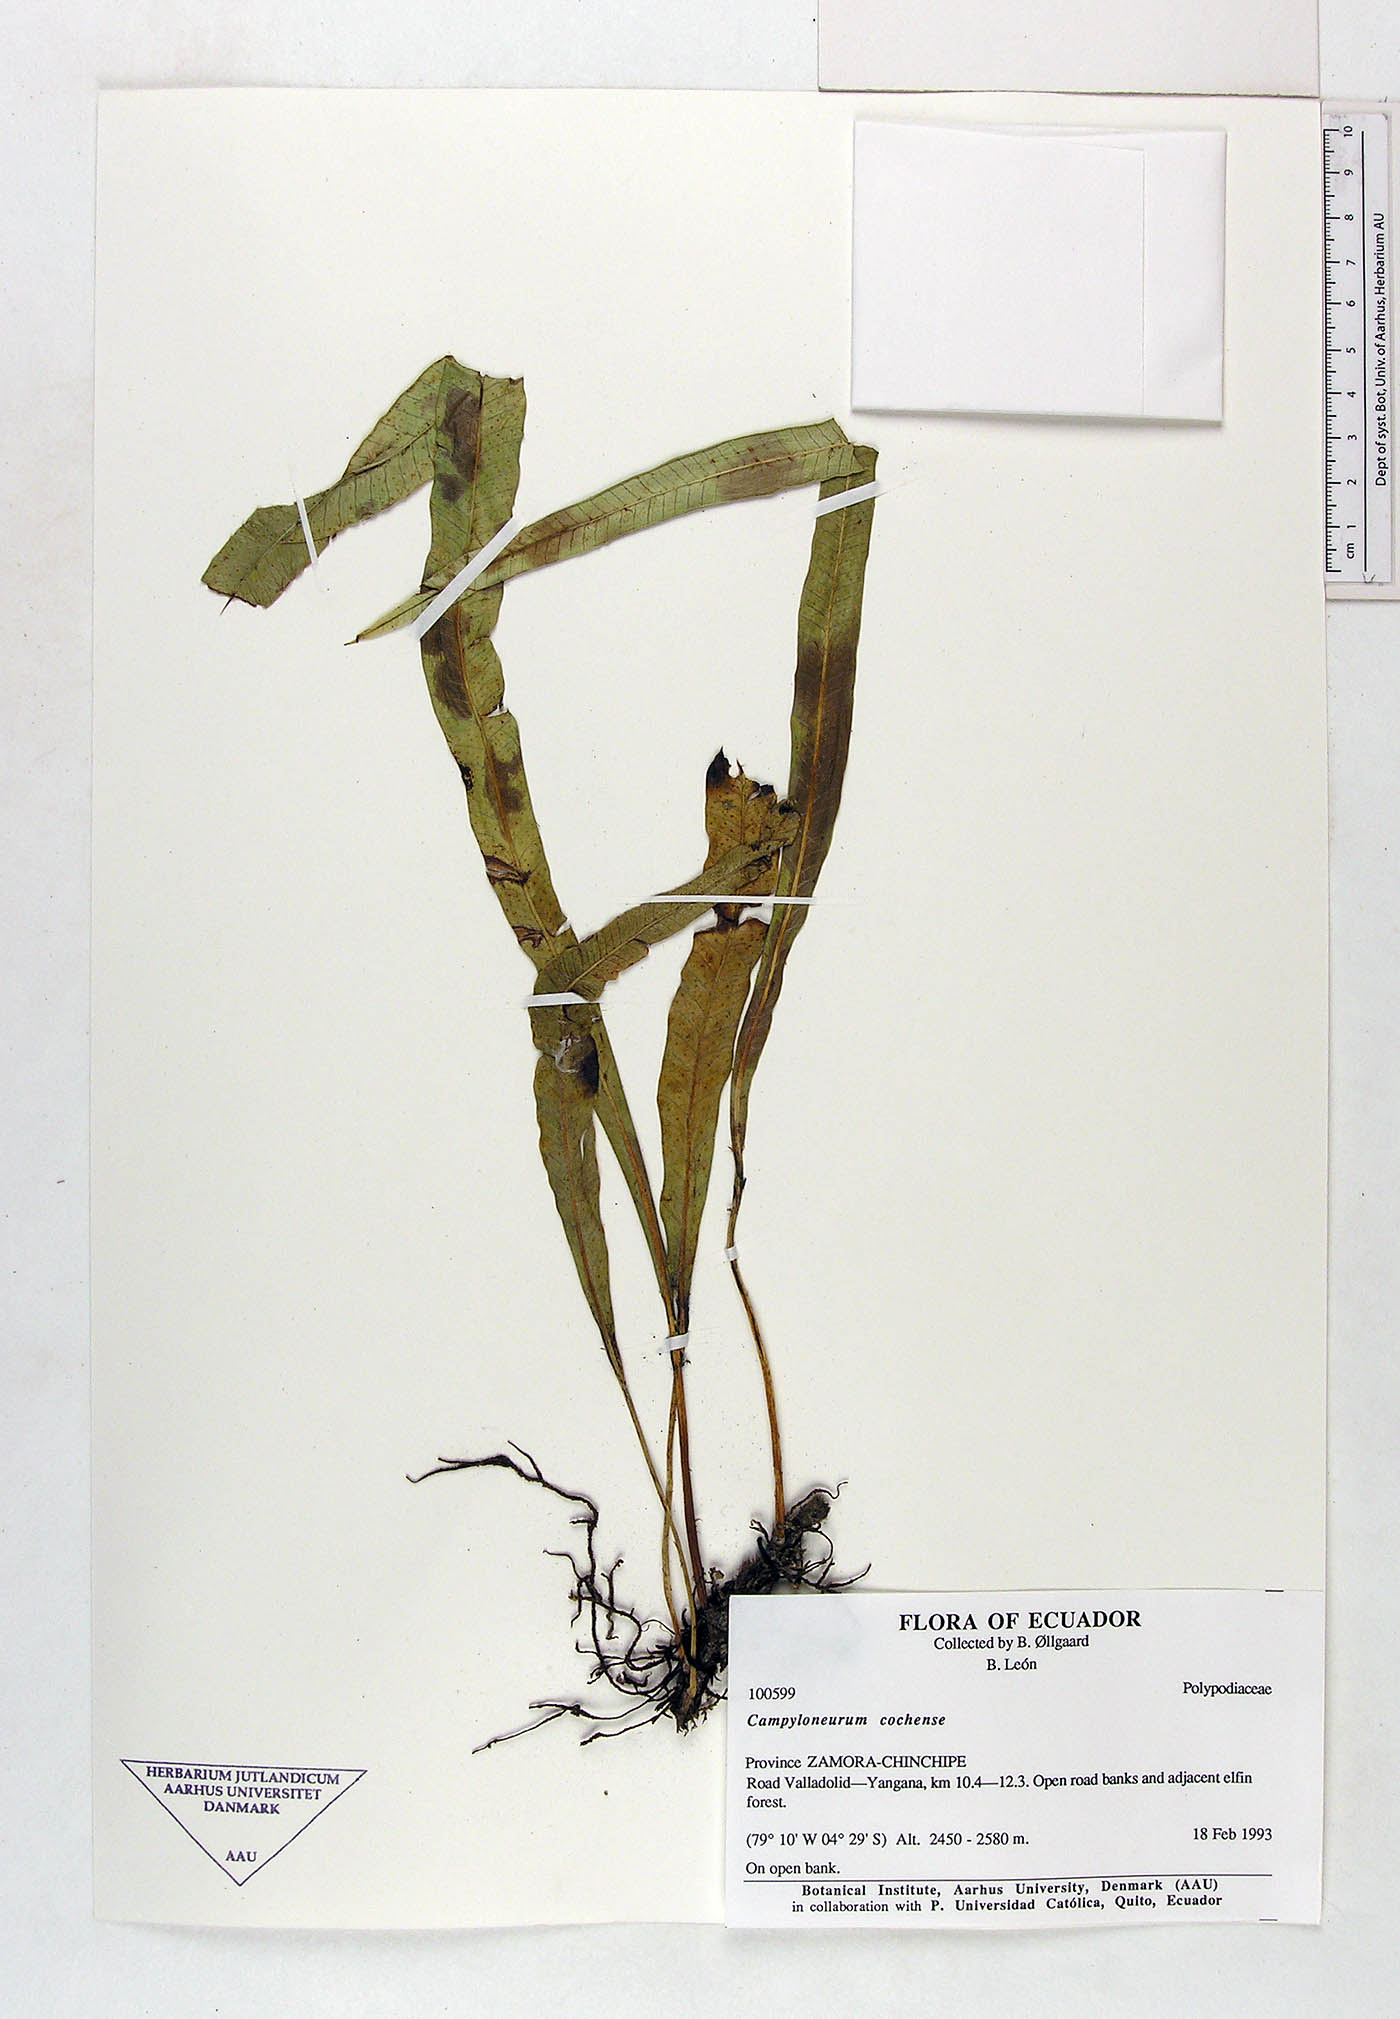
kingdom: Plantae
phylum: Tracheophyta
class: Polypodiopsida
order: Polypodiales
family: Polypodiaceae
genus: Campyloneurum
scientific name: Campyloneurum cochense
